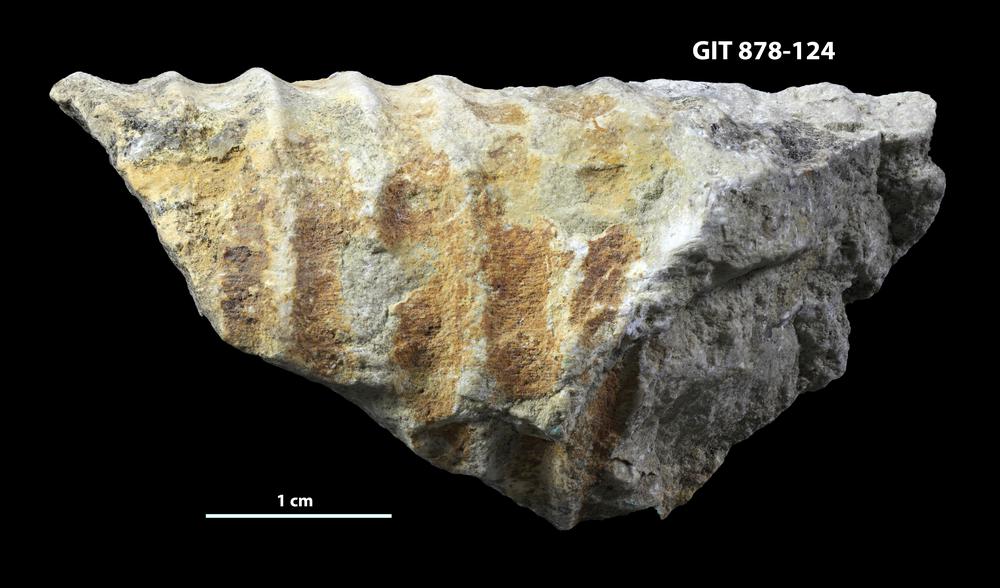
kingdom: Animalia
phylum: Mollusca
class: Cephalopoda
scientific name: Cephalopoda
